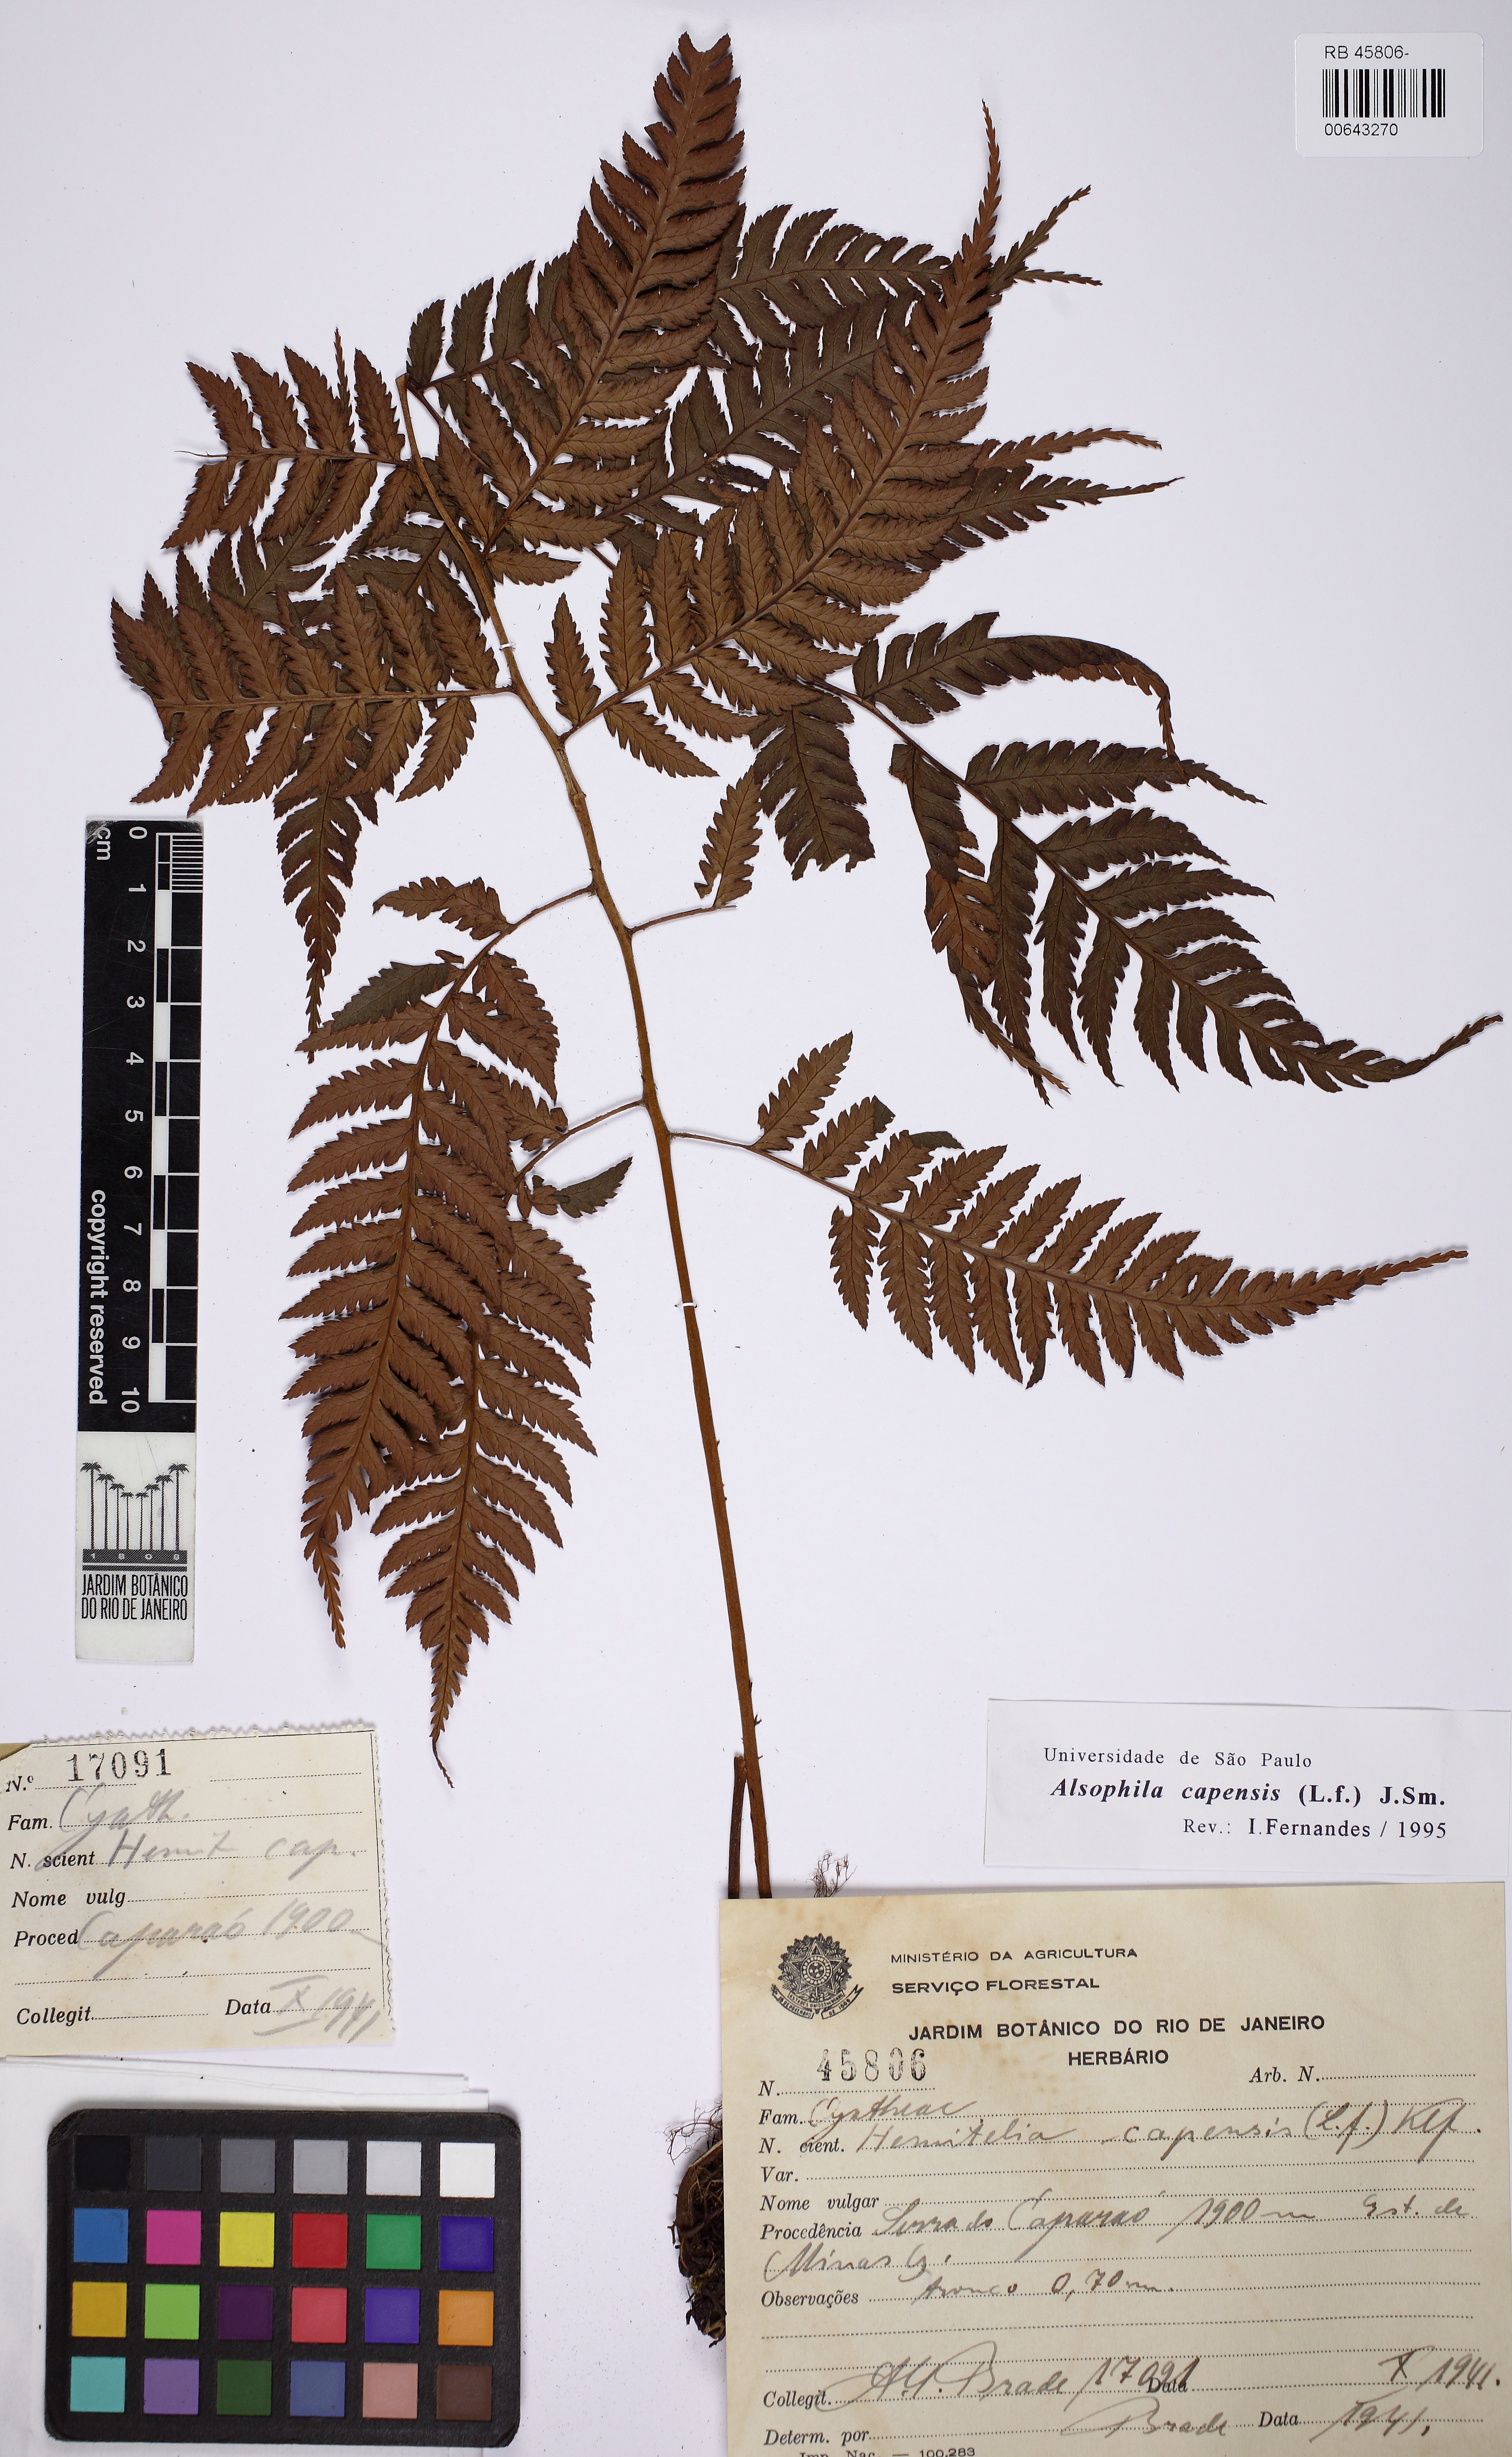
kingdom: Plantae
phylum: Tracheophyta
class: Polypodiopsida
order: Cyatheales
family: Cyatheaceae
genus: Gymnosphaera
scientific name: Gymnosphaera capensis
